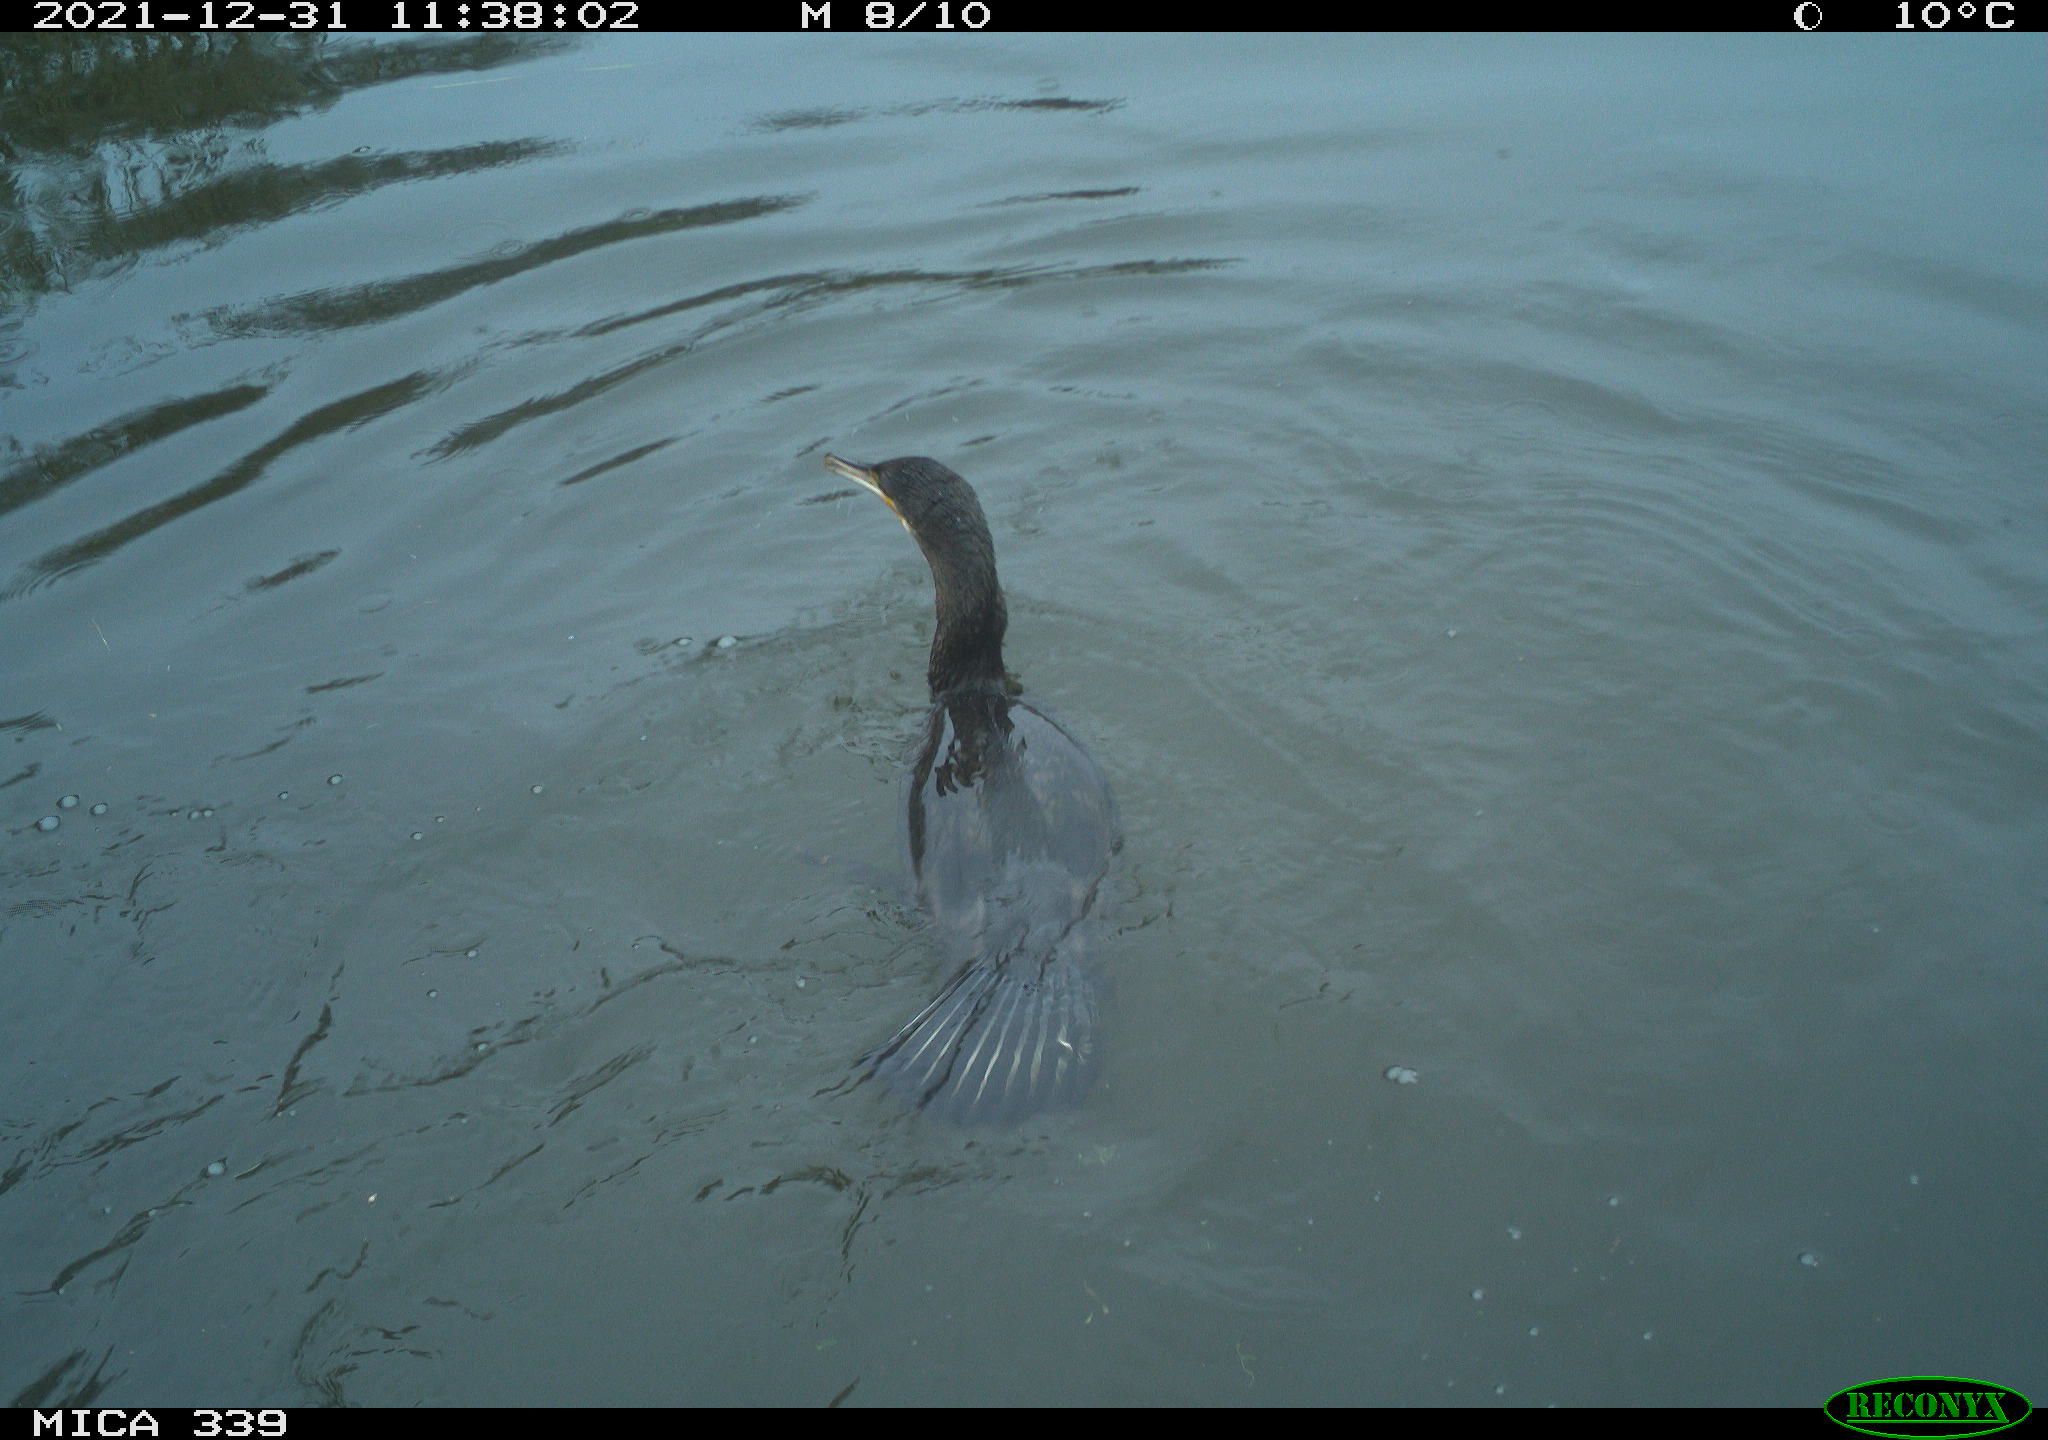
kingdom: Animalia
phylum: Chordata
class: Aves
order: Suliformes
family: Phalacrocoracidae
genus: Phalacrocorax
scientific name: Phalacrocorax carbo
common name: Great cormorant
